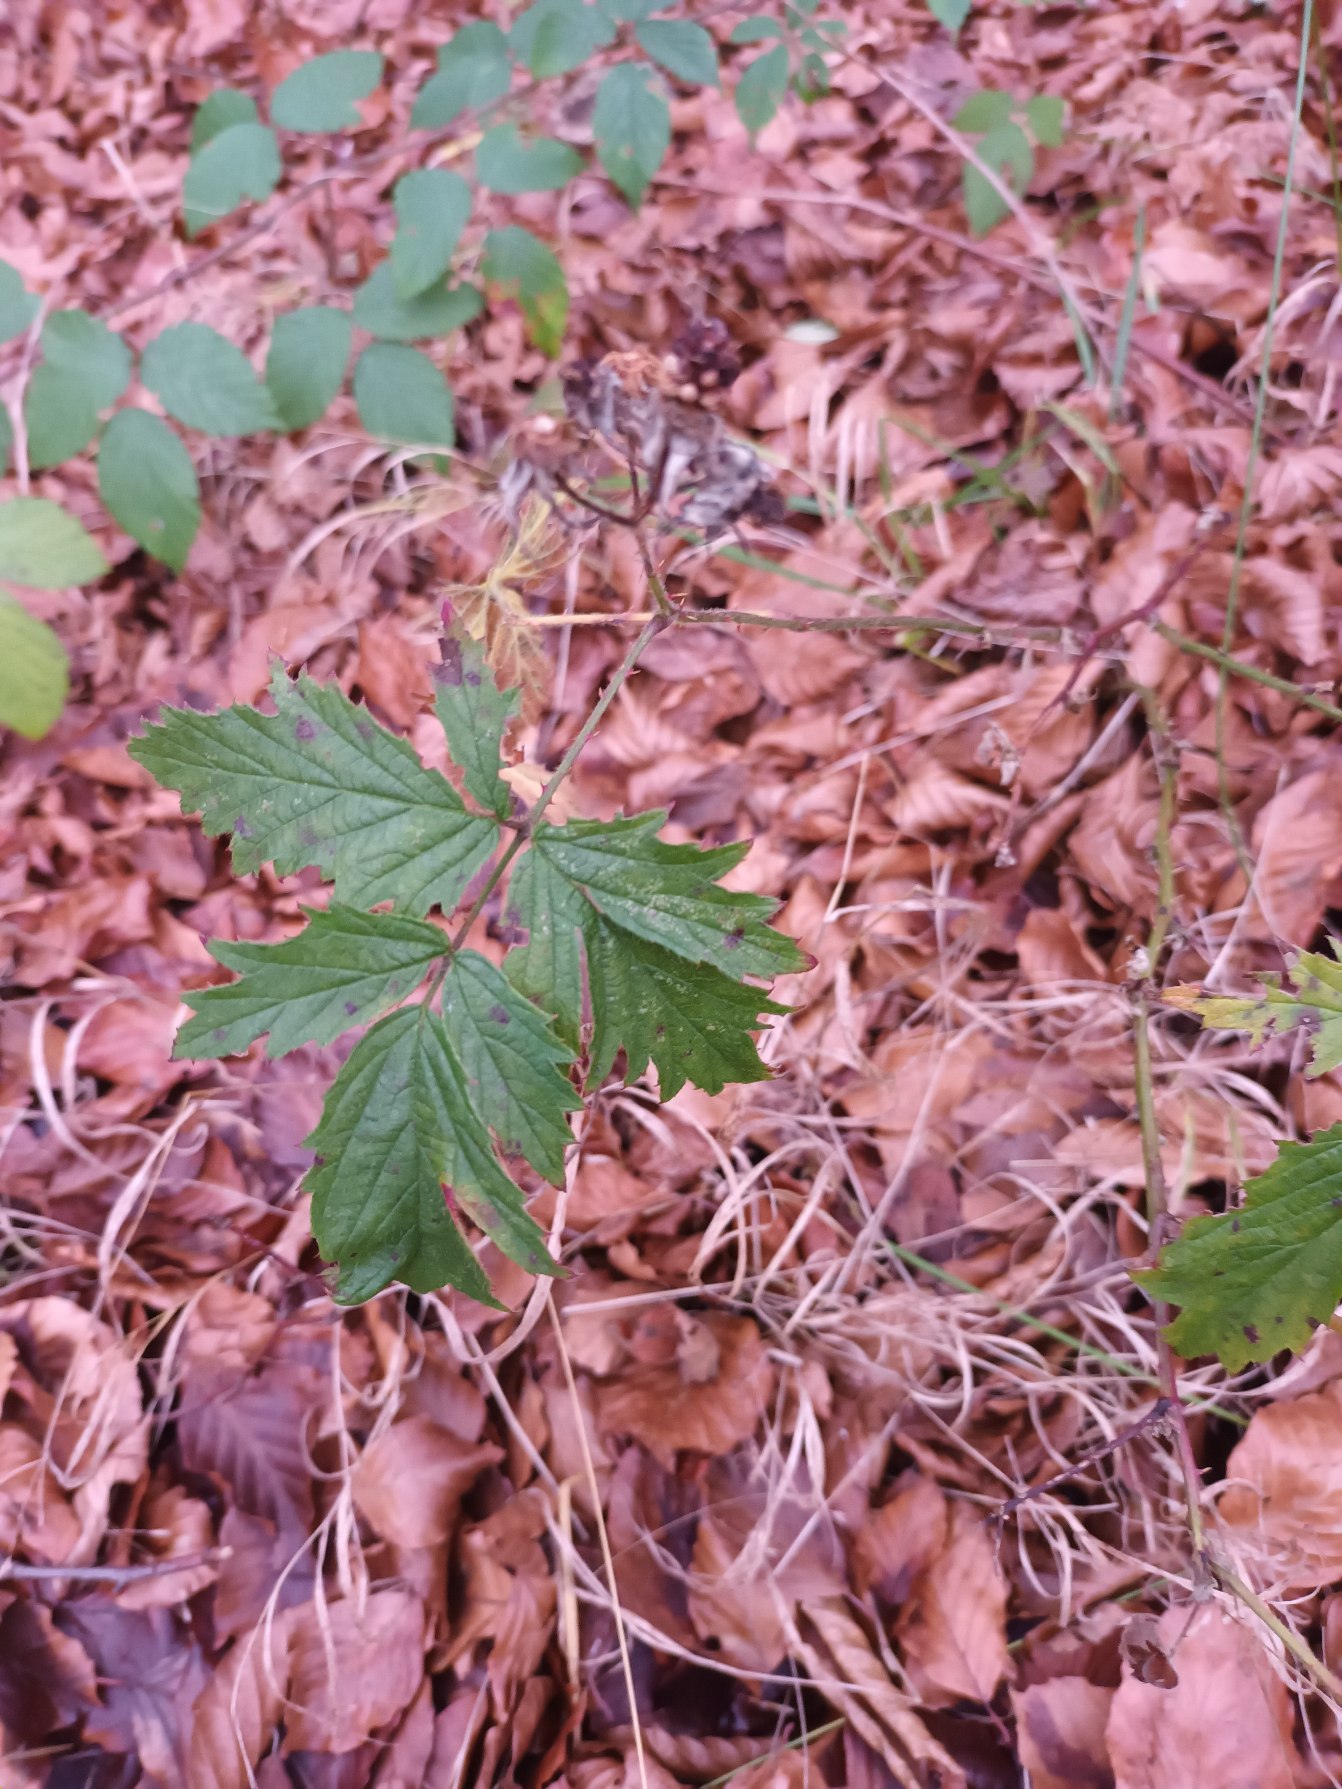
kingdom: Plantae
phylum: Tracheophyta
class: Magnoliopsida
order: Rosales
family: Rosaceae
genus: Rubus
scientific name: Rubus laciniatus
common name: Fliget brombær
